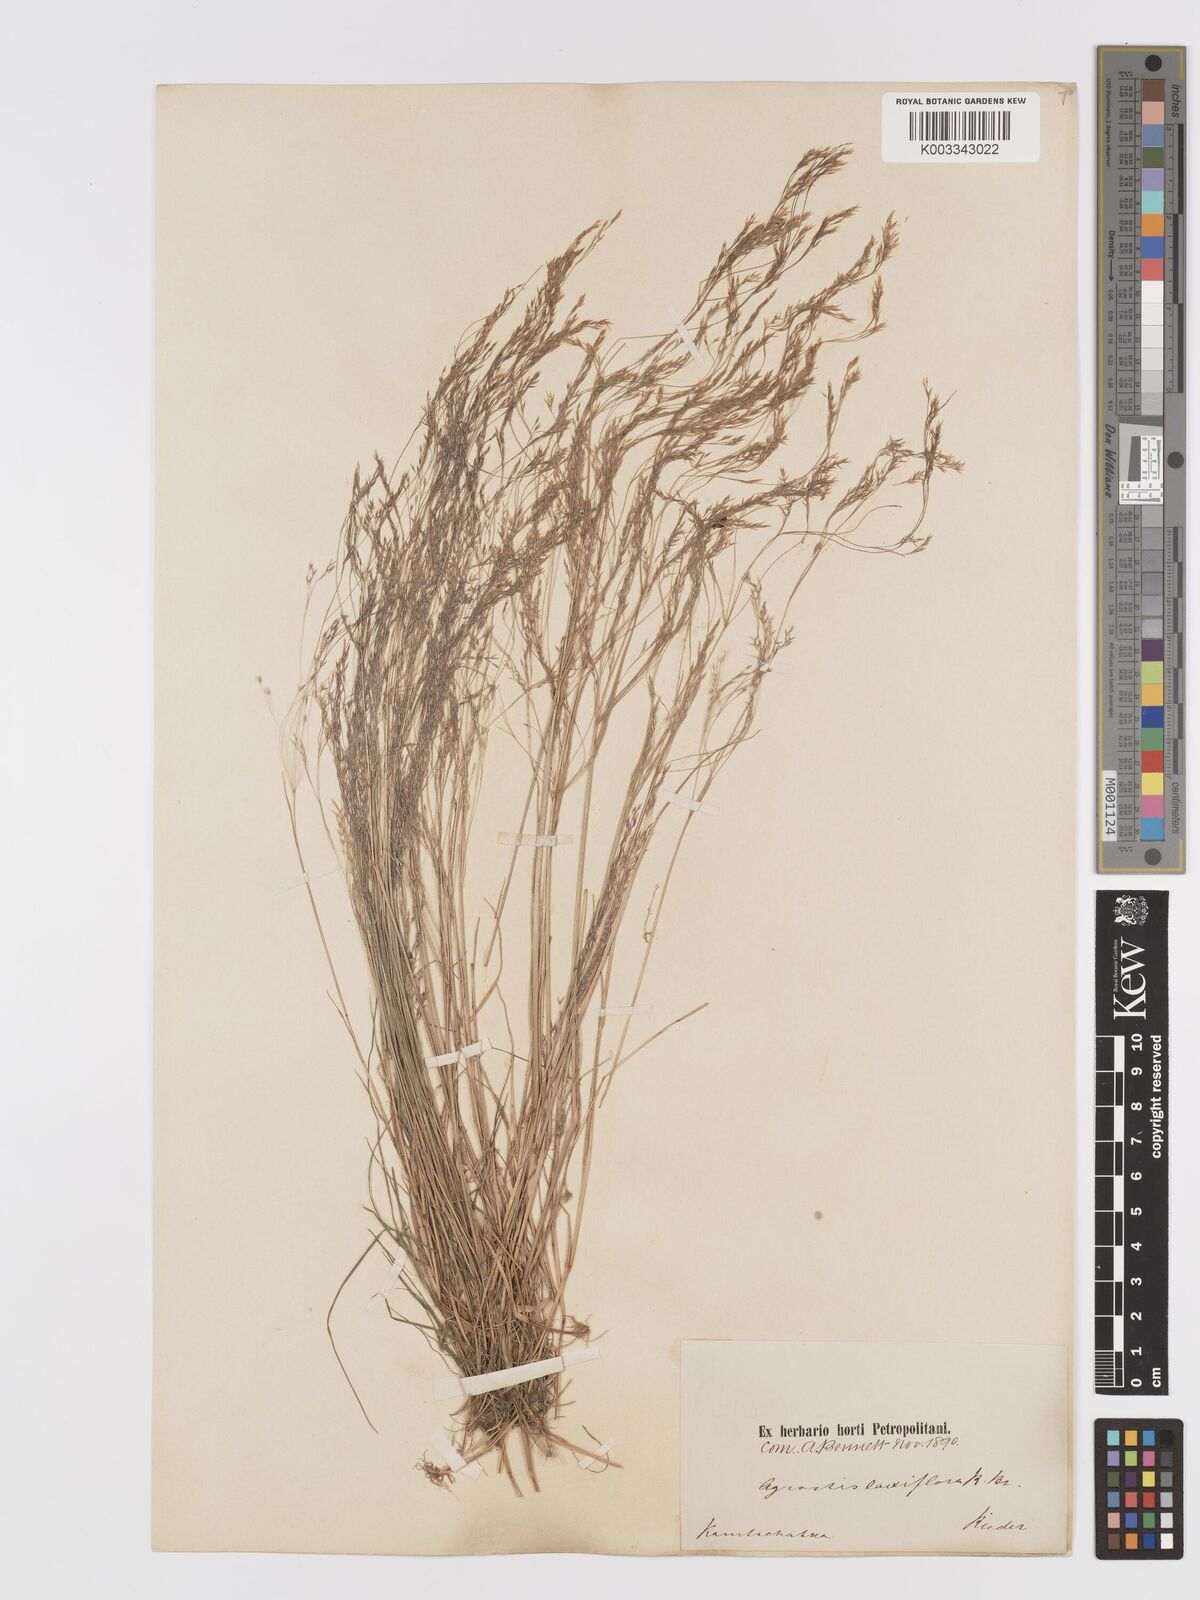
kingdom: Plantae
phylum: Tracheophyta
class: Liliopsida
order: Poales
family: Poaceae
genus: Agrostis
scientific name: Agrostis clavata
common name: Clavate bent
